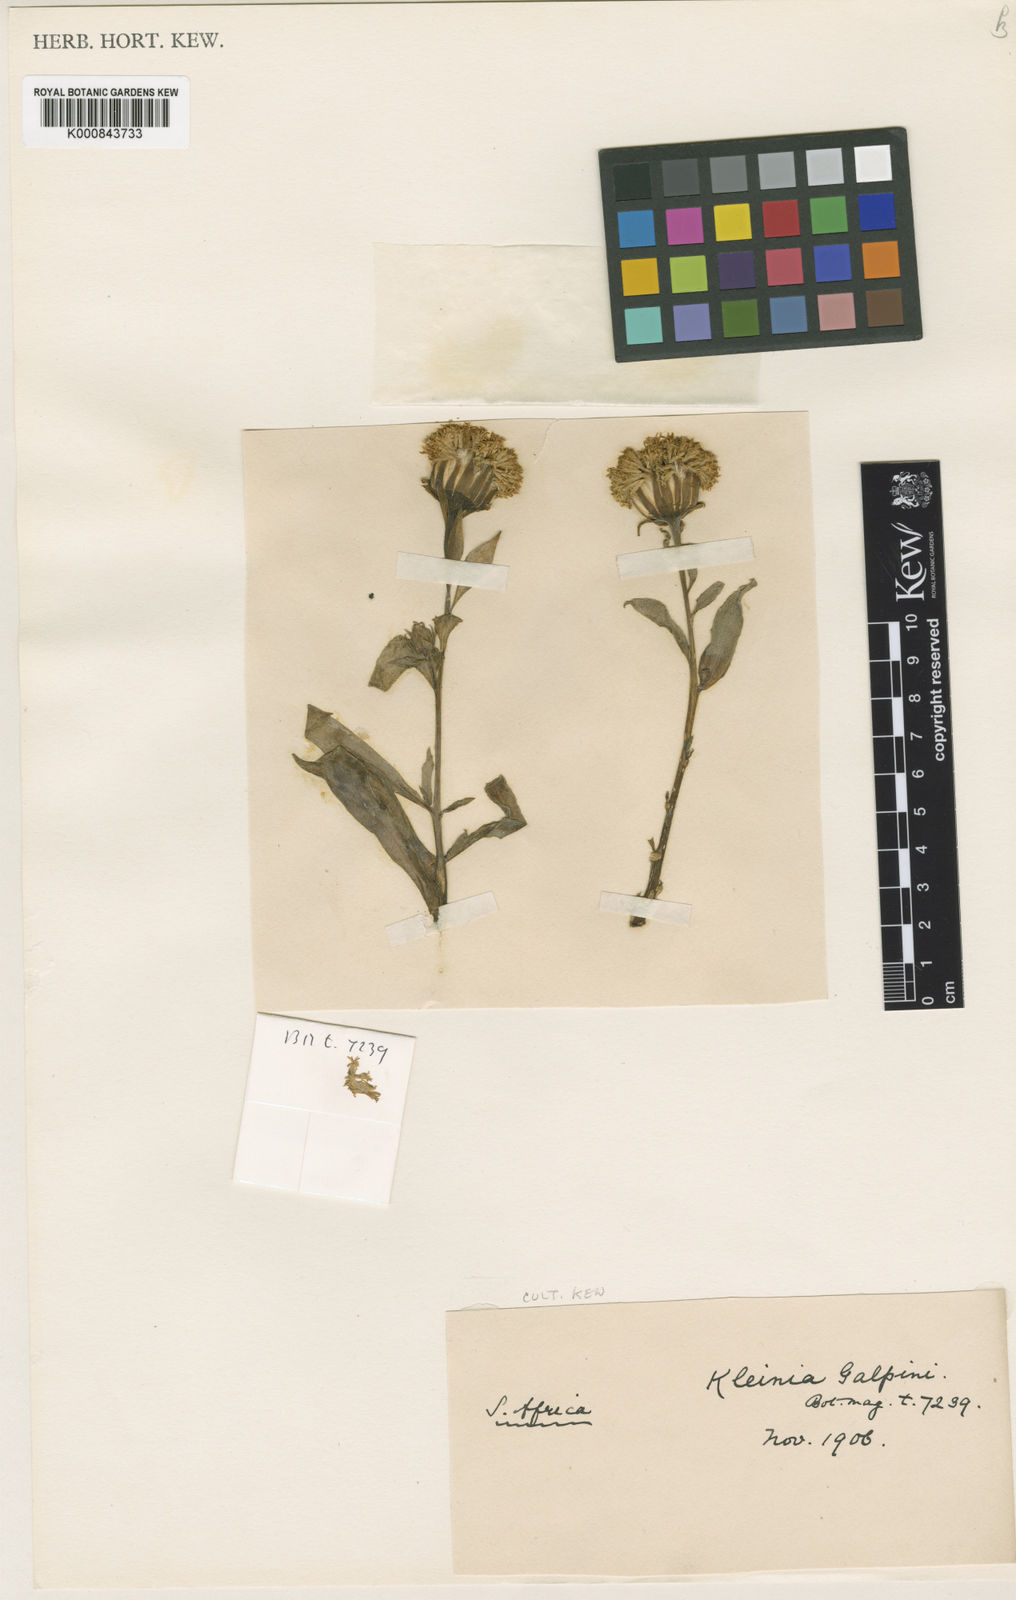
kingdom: Plantae
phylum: Tracheophyta
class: Magnoliopsida
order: Asterales
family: Asteraceae
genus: Kleinia
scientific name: Kleinia
